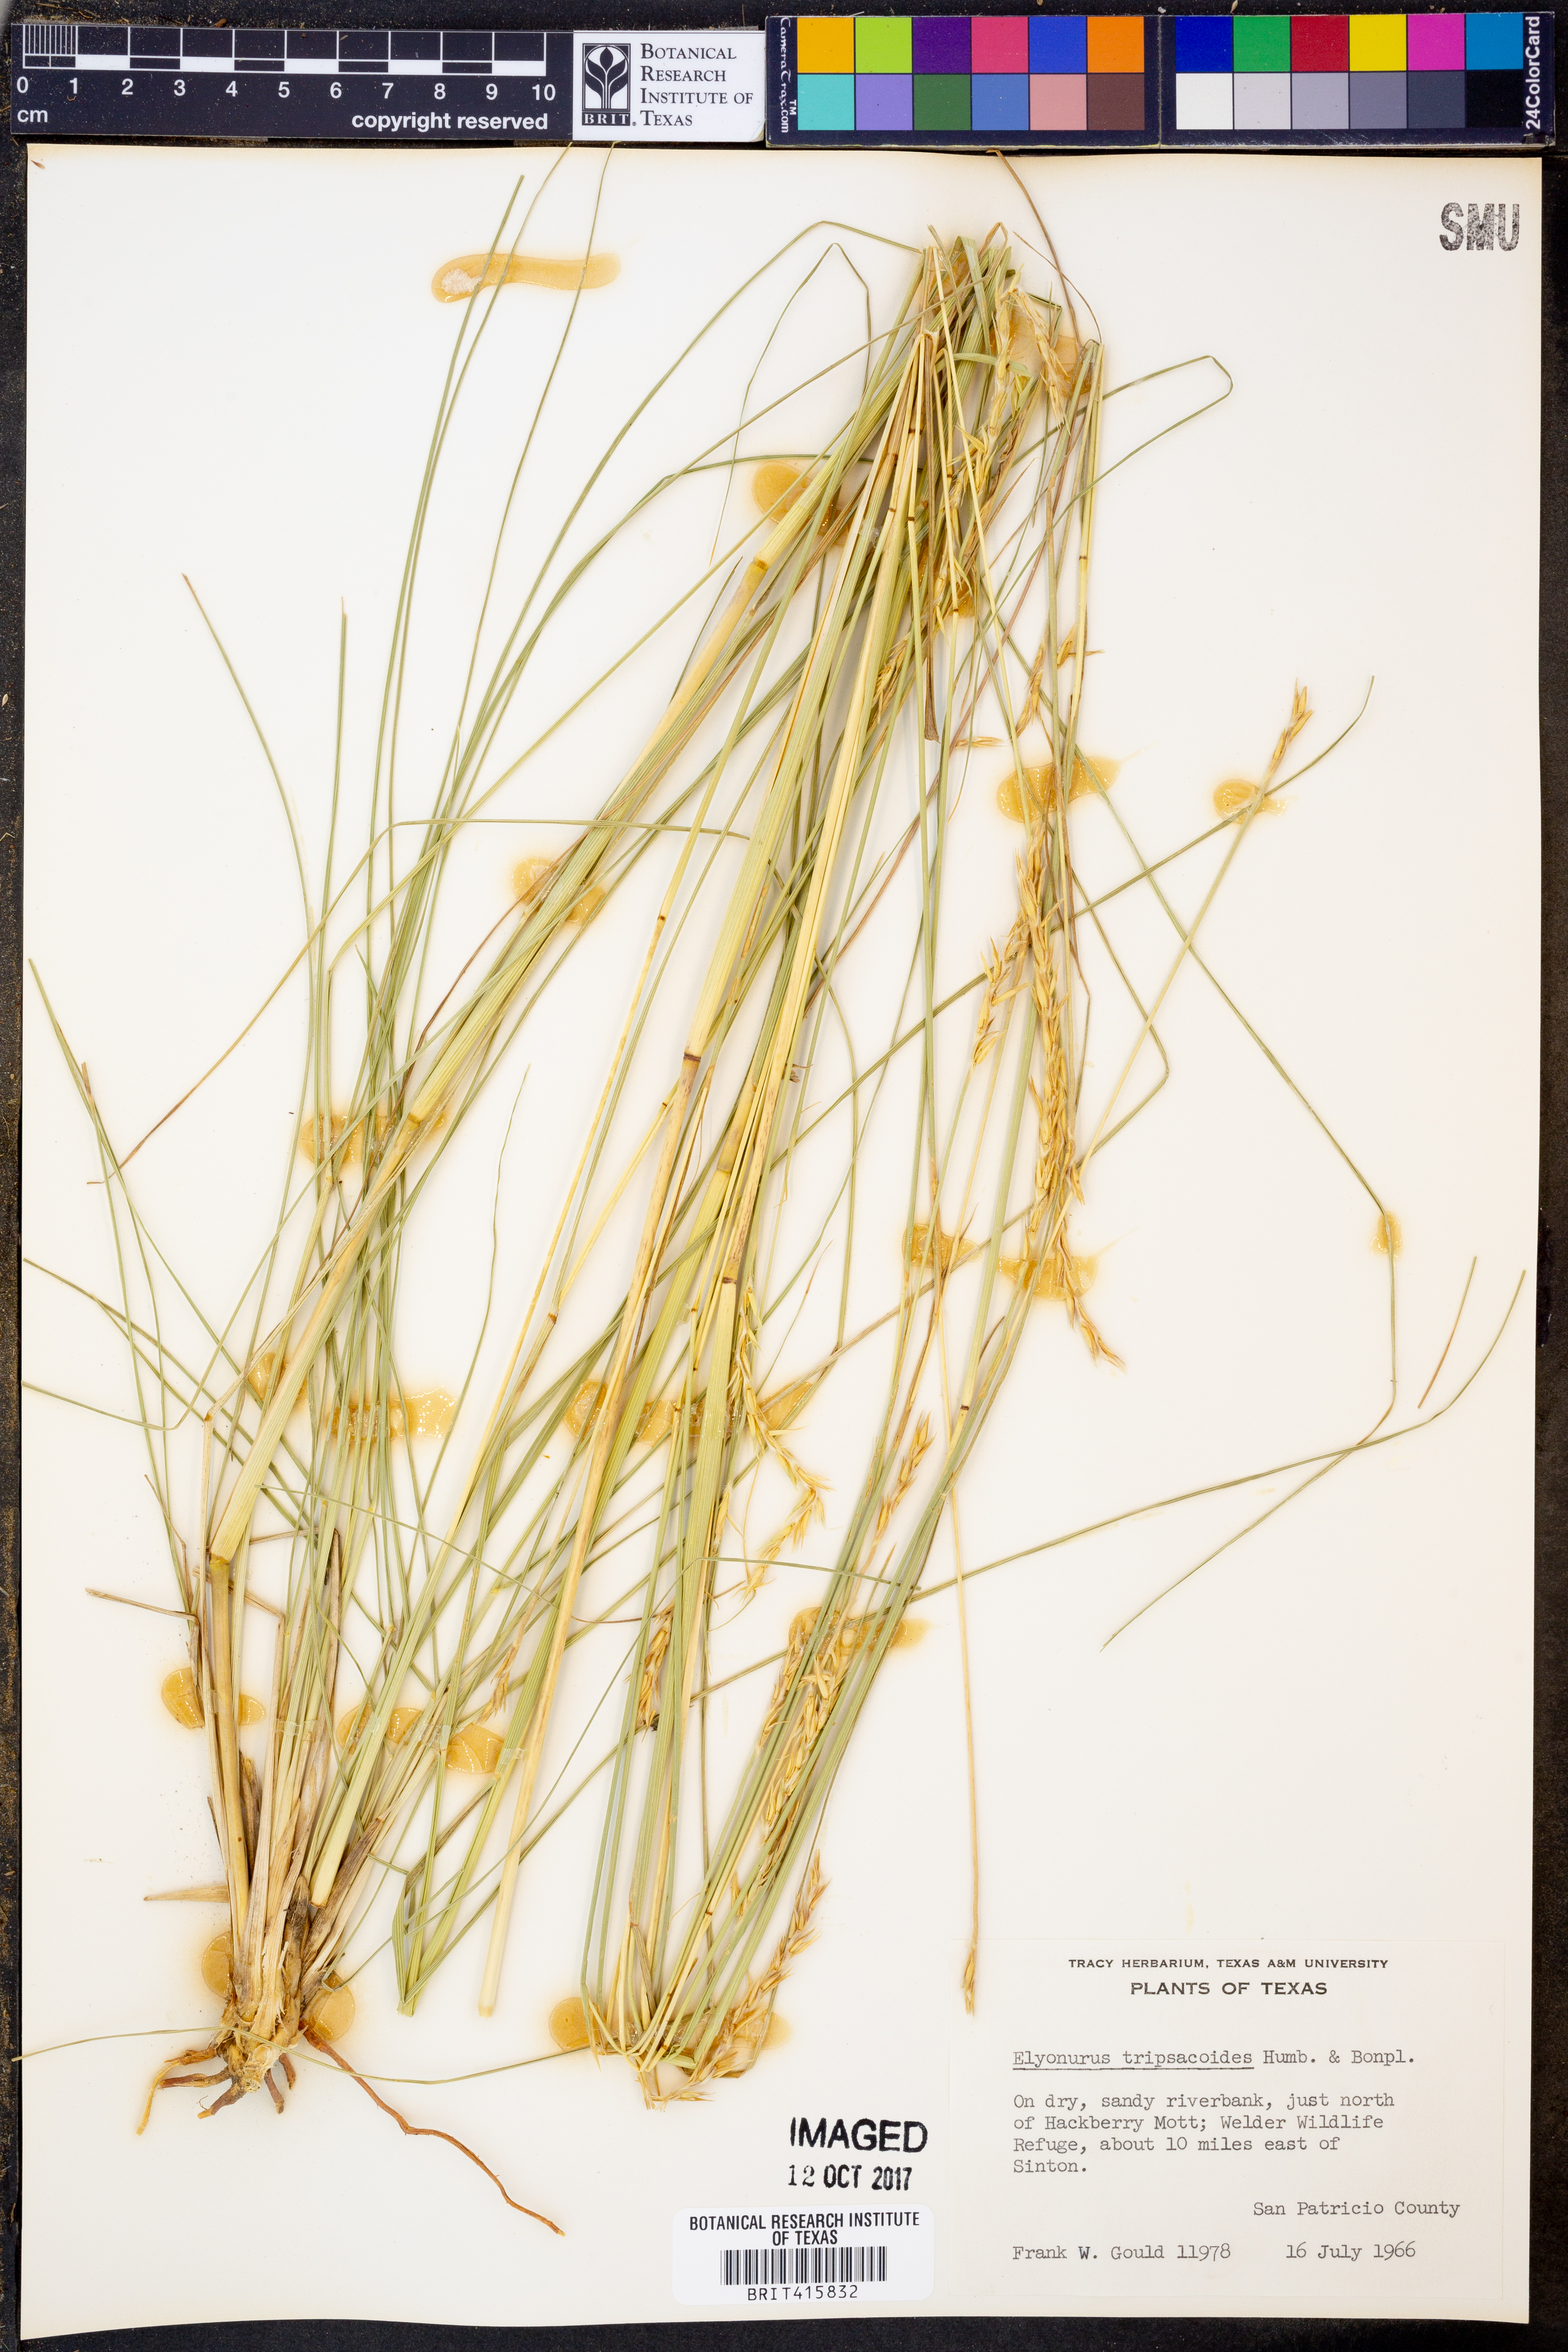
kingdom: Plantae
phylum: Tracheophyta
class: Liliopsida
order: Poales
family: Poaceae
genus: Elionurus
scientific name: Elionurus tripsacoides
